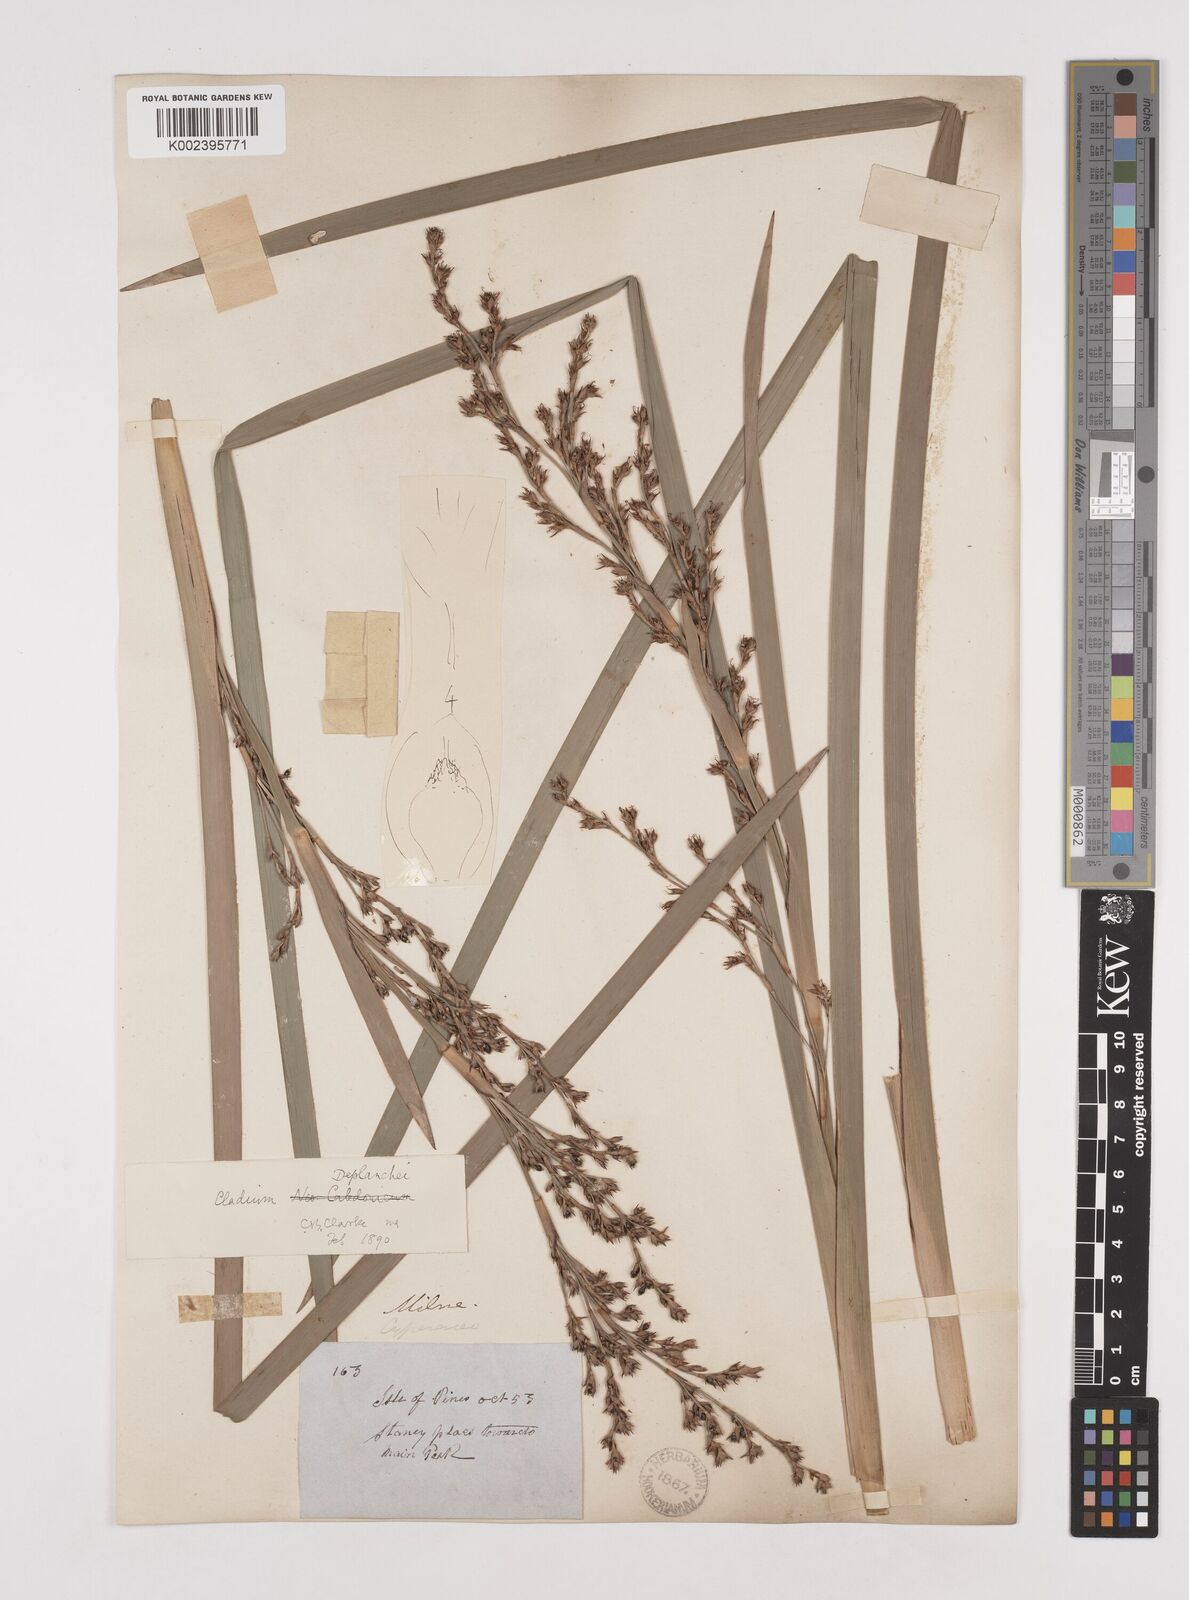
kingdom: Plantae
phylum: Tracheophyta
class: Liliopsida
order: Poales
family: Cyperaceae
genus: Machaerina
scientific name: Machaerina deplanchei
